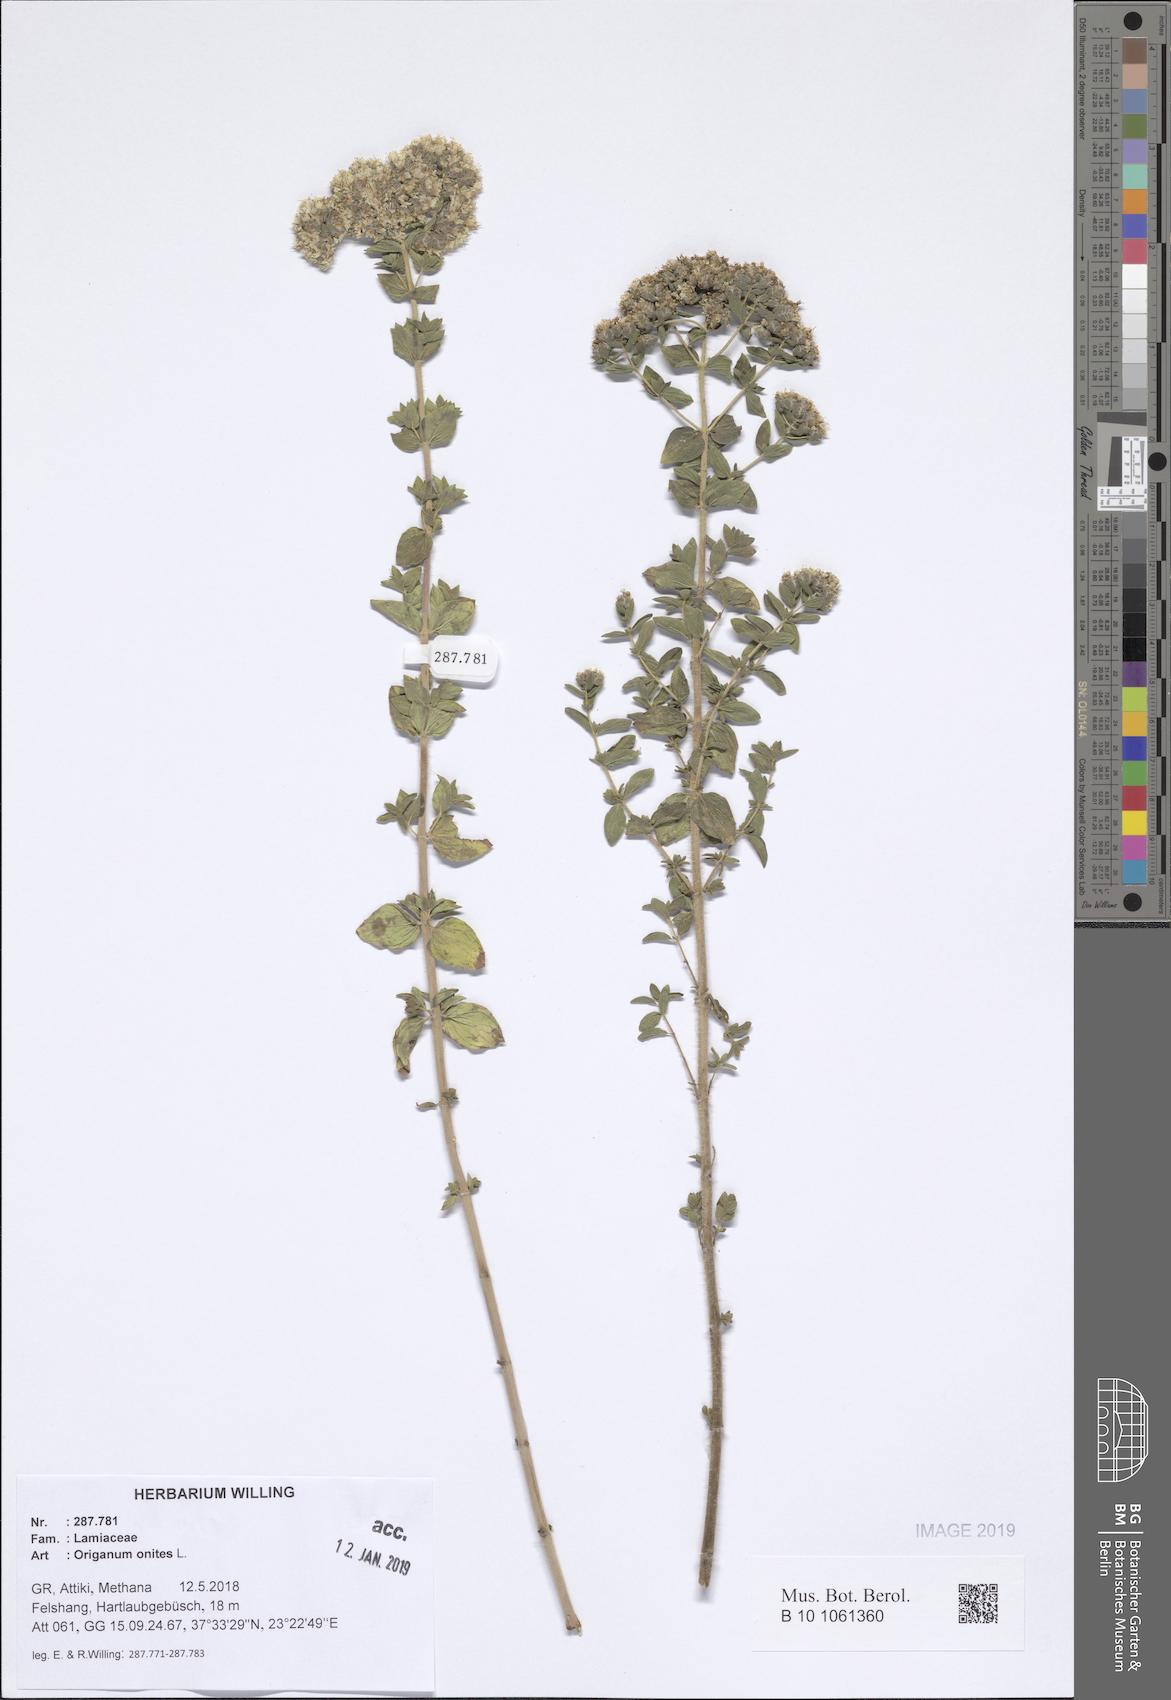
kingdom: Plantae
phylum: Tracheophyta
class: Magnoliopsida
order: Lamiales
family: Lamiaceae
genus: Origanum
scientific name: Origanum onites
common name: Turkish oregano
